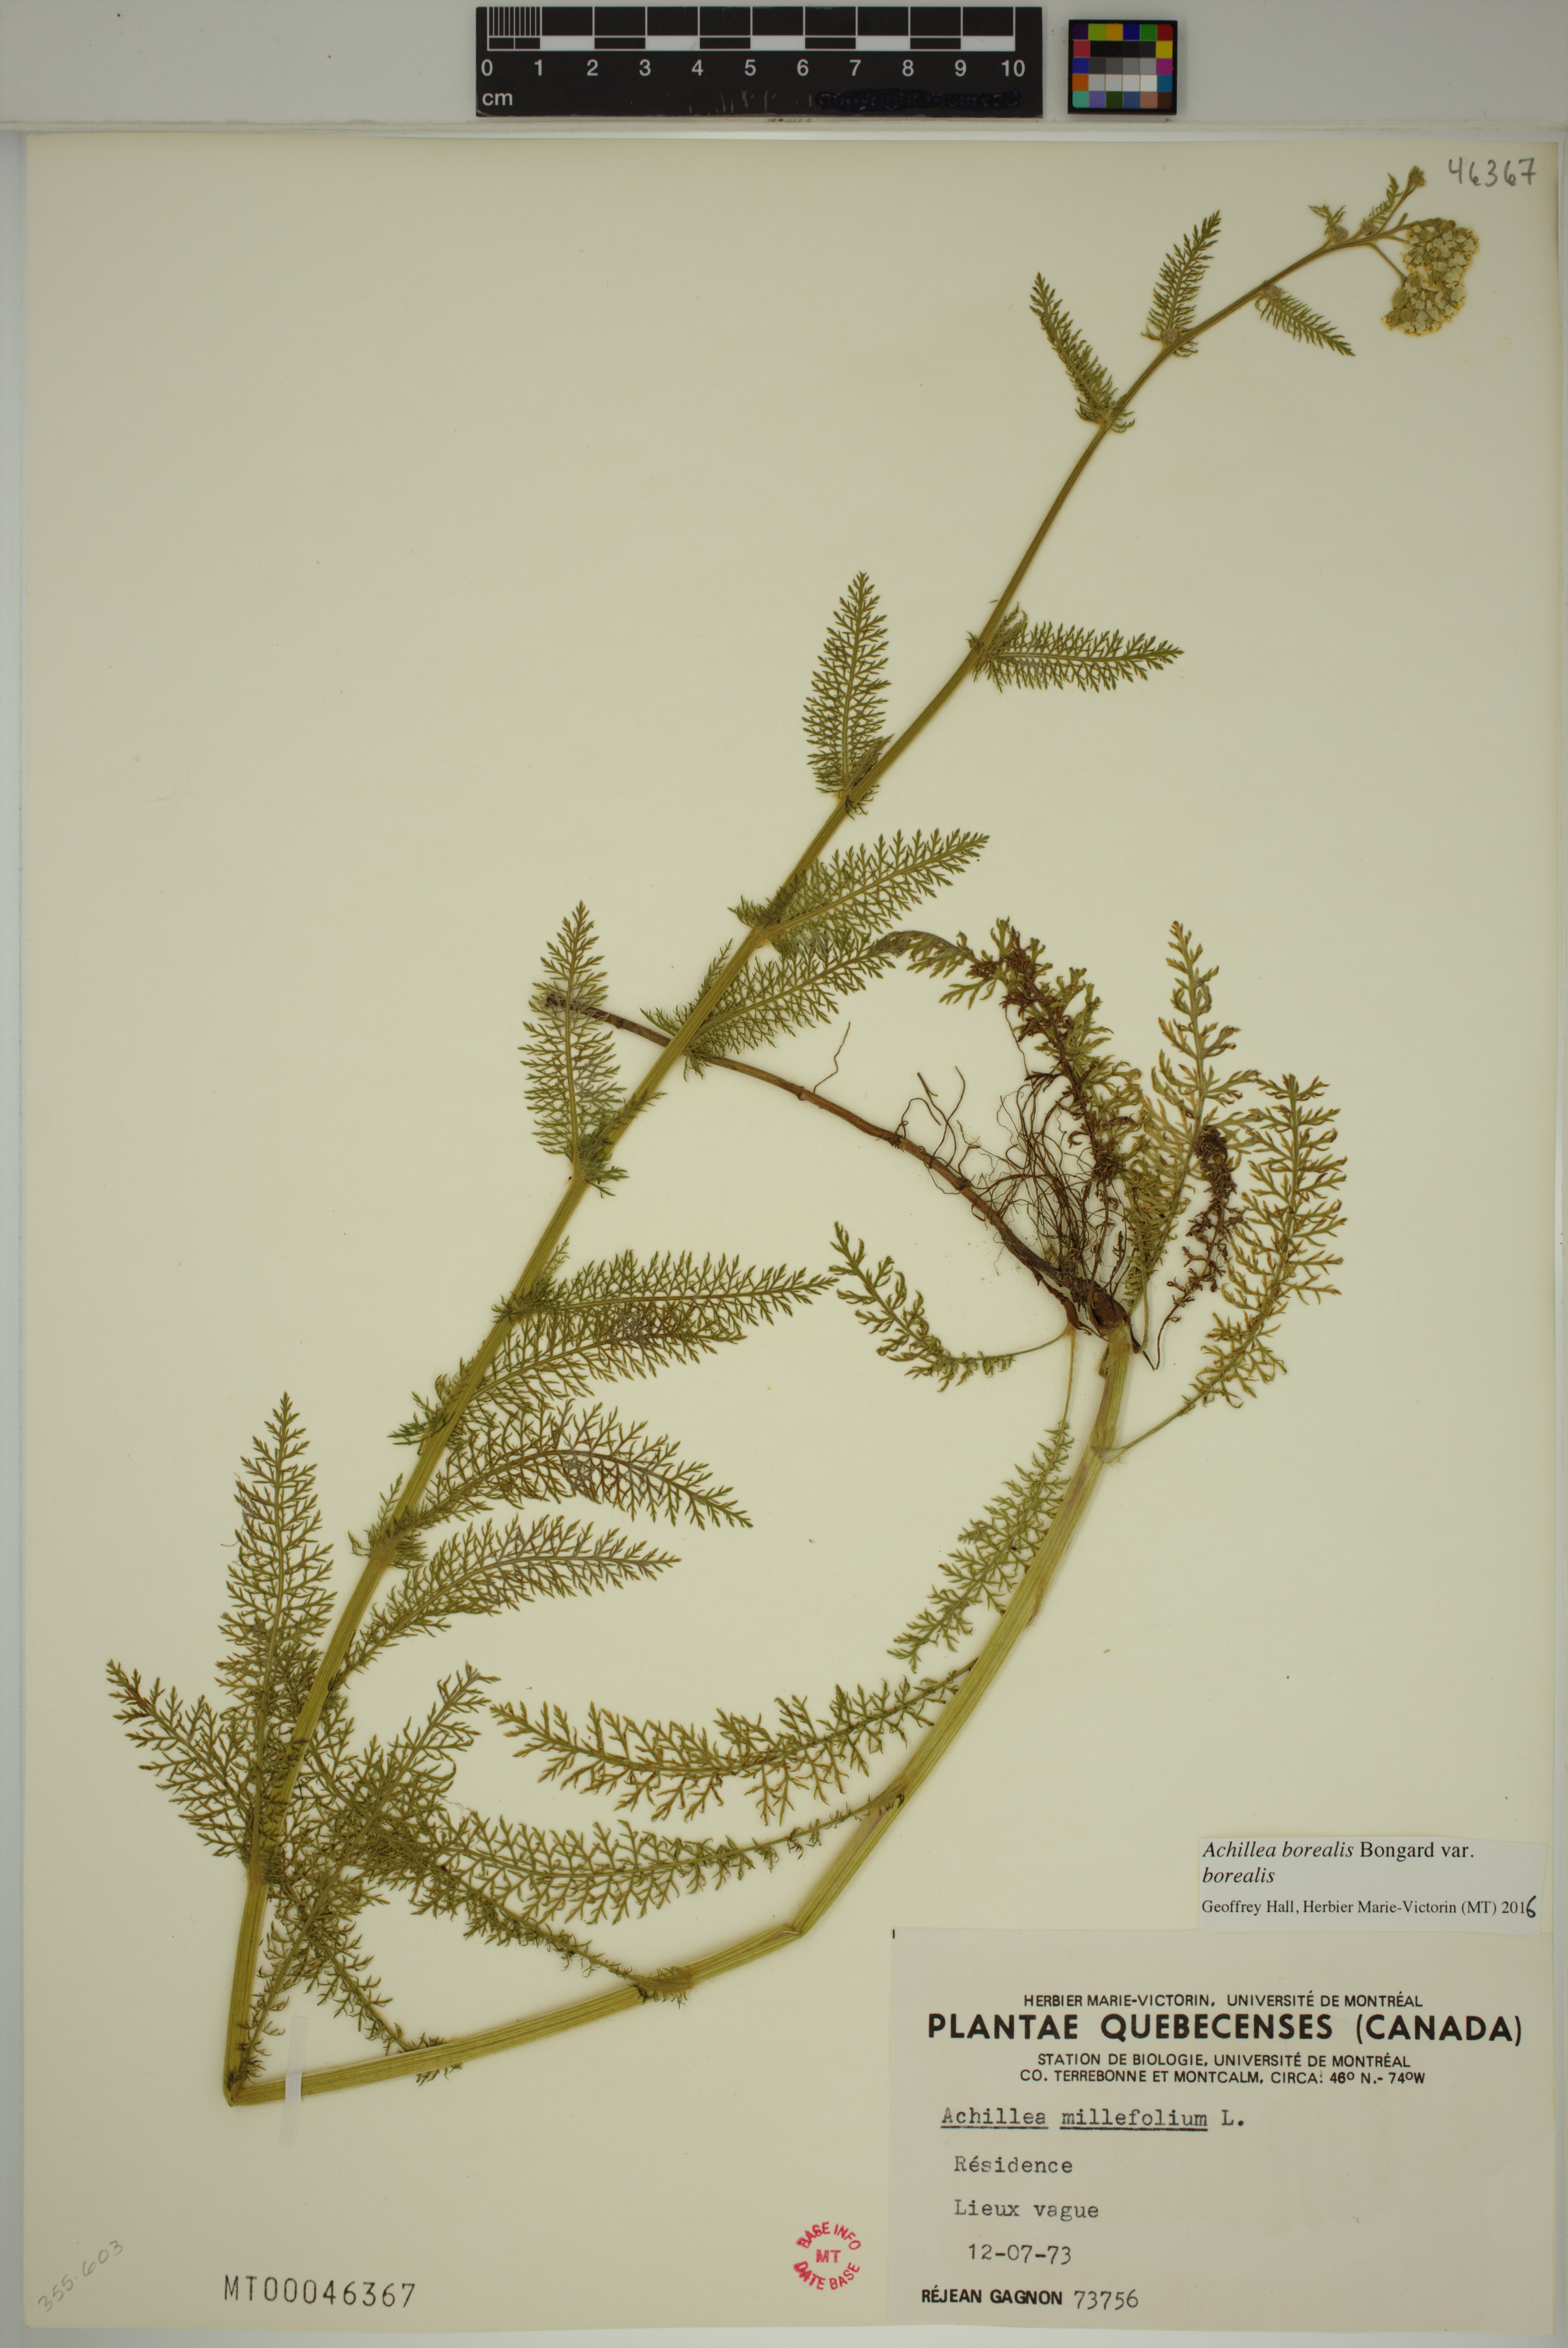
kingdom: Plantae
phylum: Tracheophyta
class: Magnoliopsida
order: Asterales
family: Asteraceae
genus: Achillea
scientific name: Achillea millefolium
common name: Yarrow
